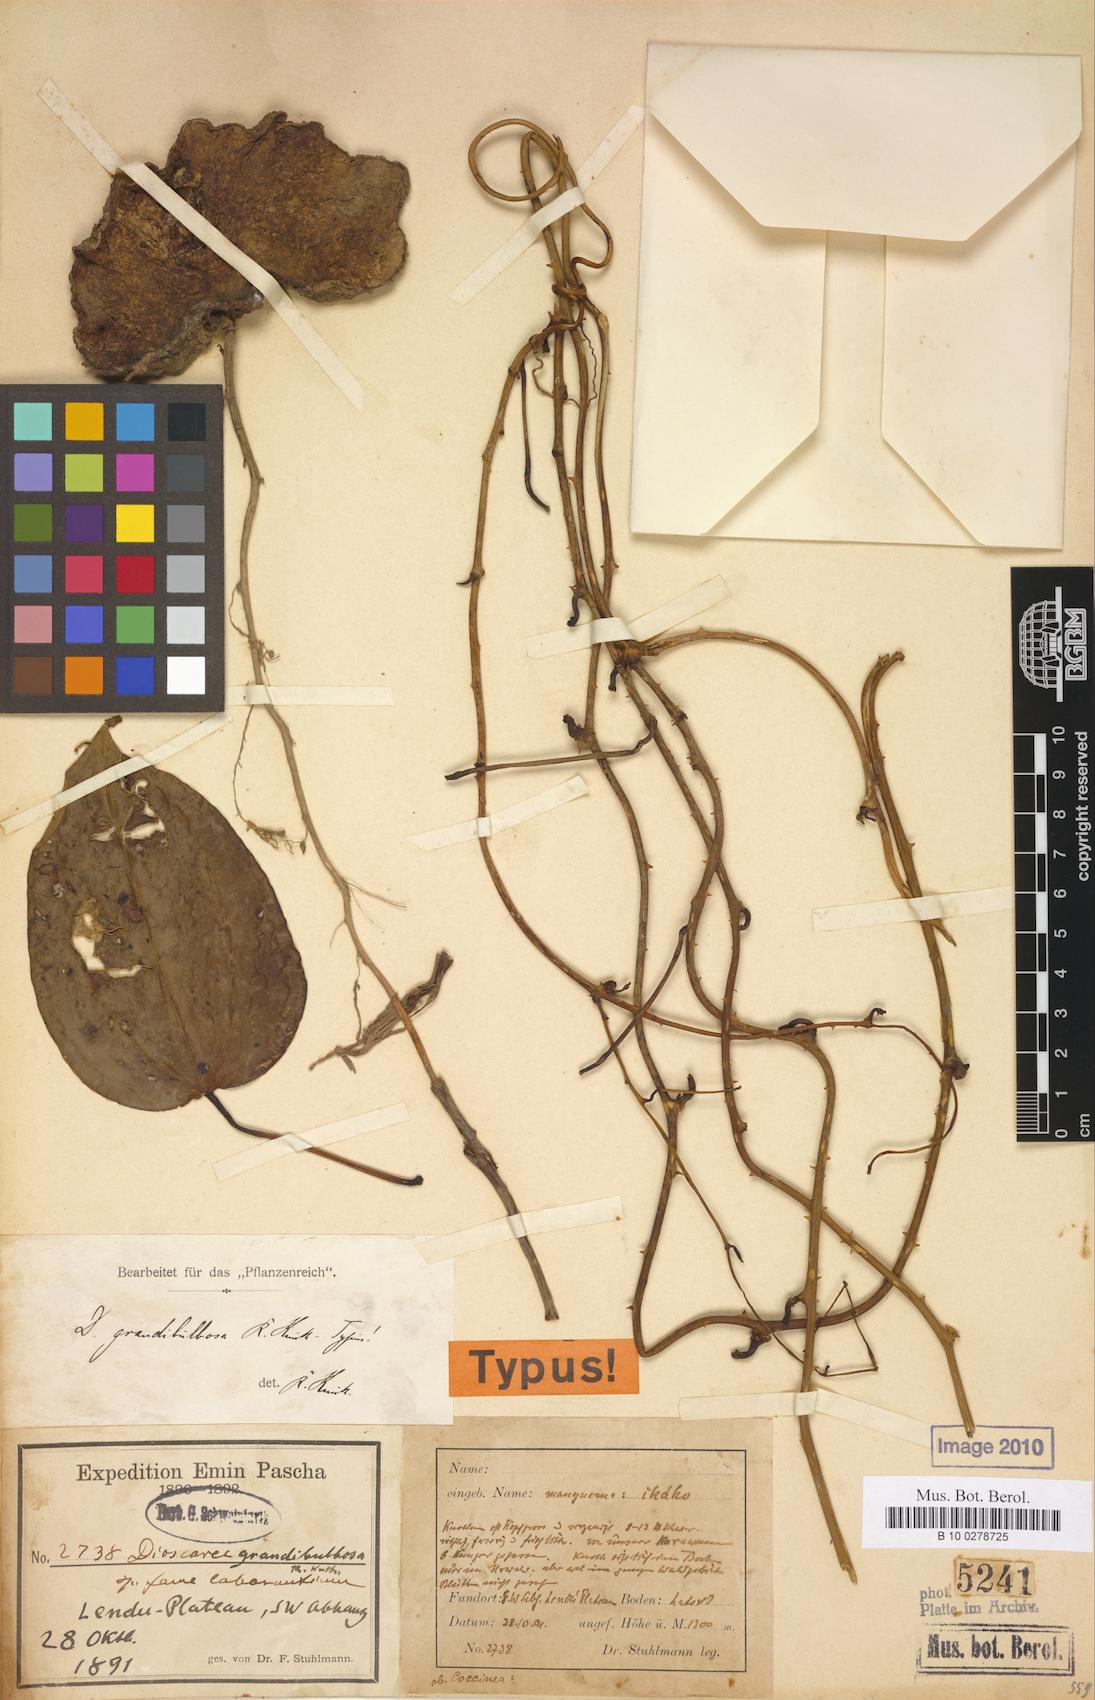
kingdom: Plantae
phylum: Tracheophyta
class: Liliopsida
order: Dioscoreales
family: Dioscoreaceae
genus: Dioscorea
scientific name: Dioscorea minutiflora
